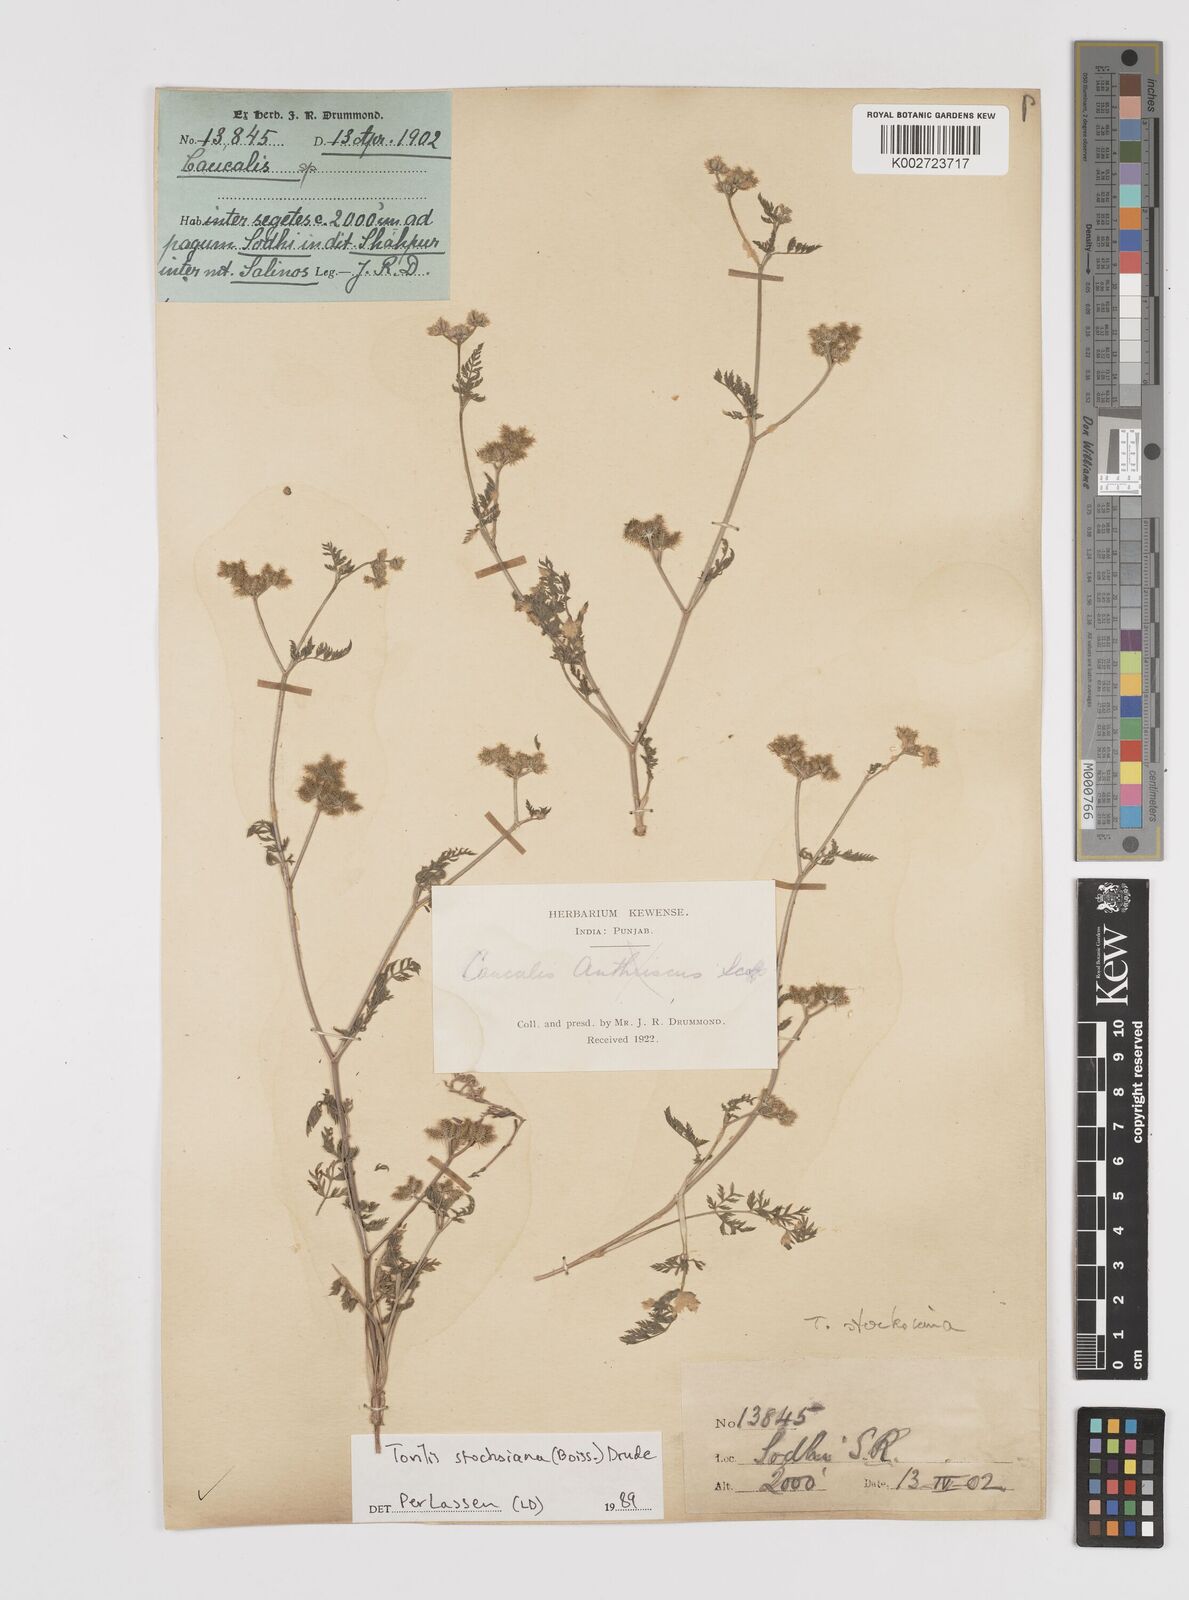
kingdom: Plantae
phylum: Tracheophyta
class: Magnoliopsida
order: Apiales
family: Apiaceae
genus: Torilis
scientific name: Torilis stocksiana
